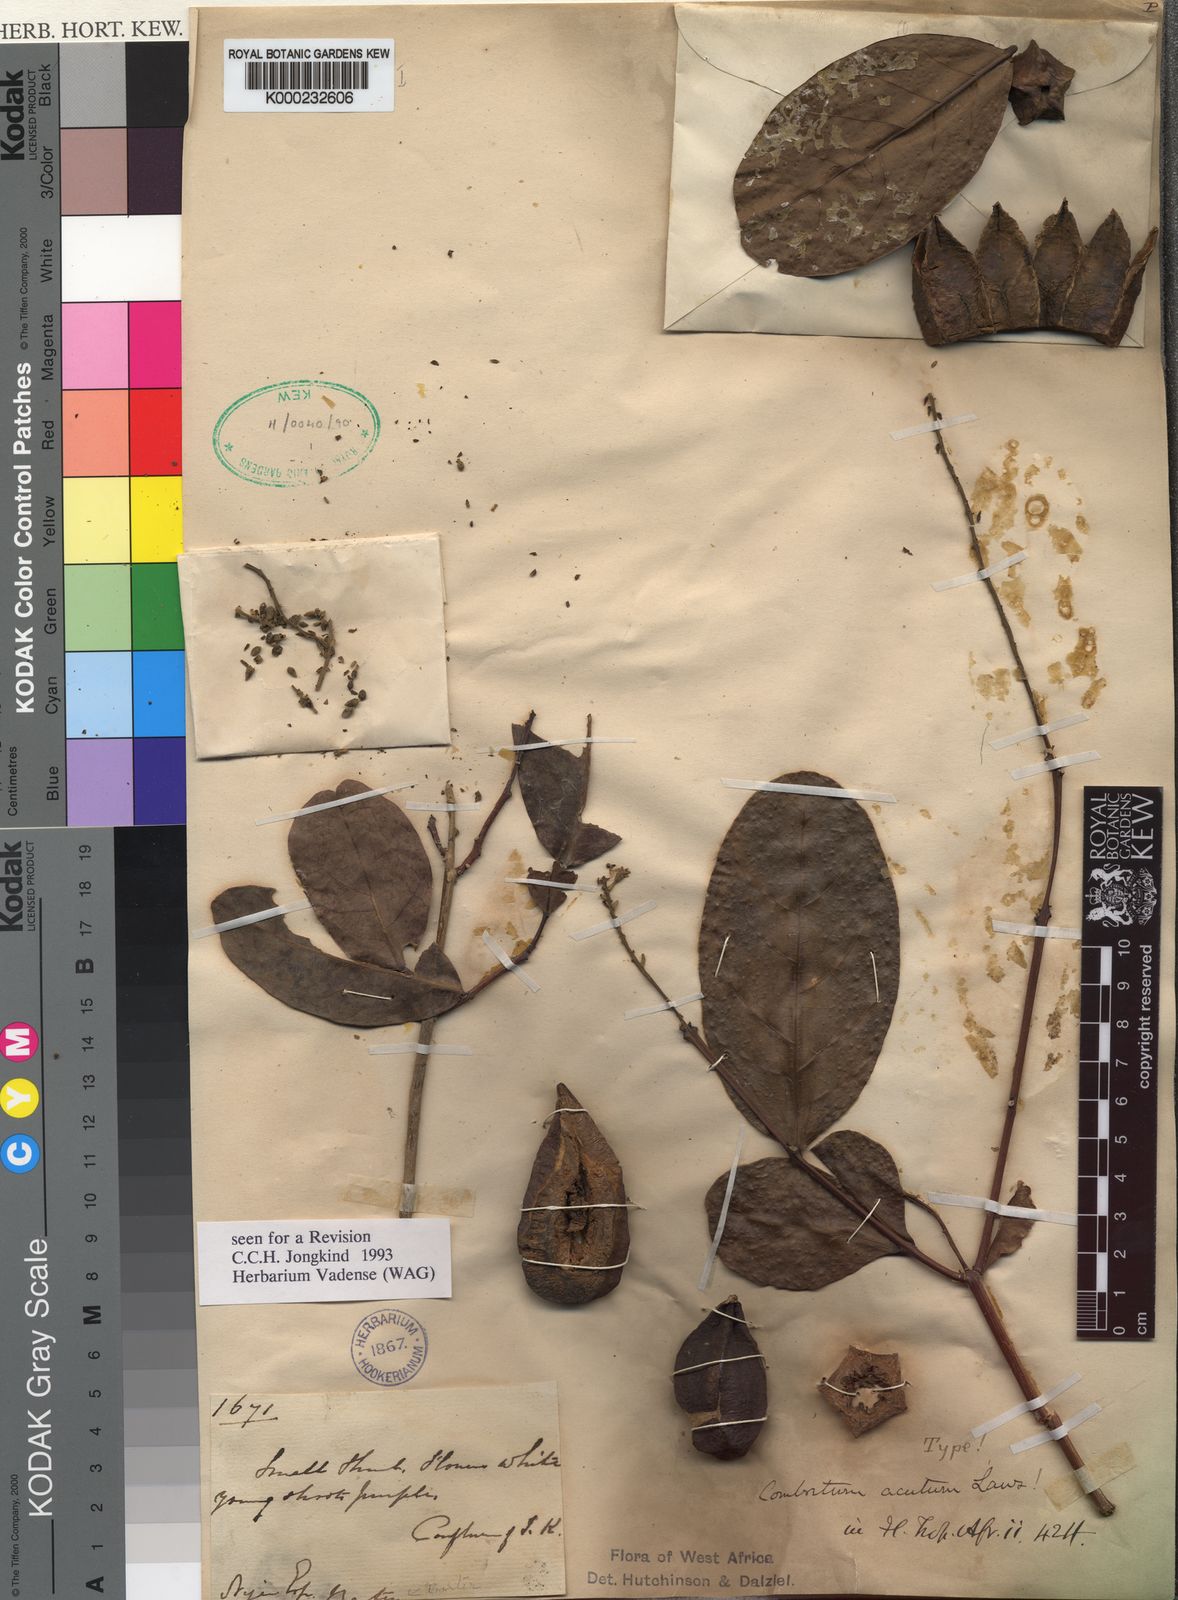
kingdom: Plantae
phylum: Tracheophyta
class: Magnoliopsida
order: Myrtales
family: Combretaceae
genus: Combretum
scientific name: Combretum acutum
